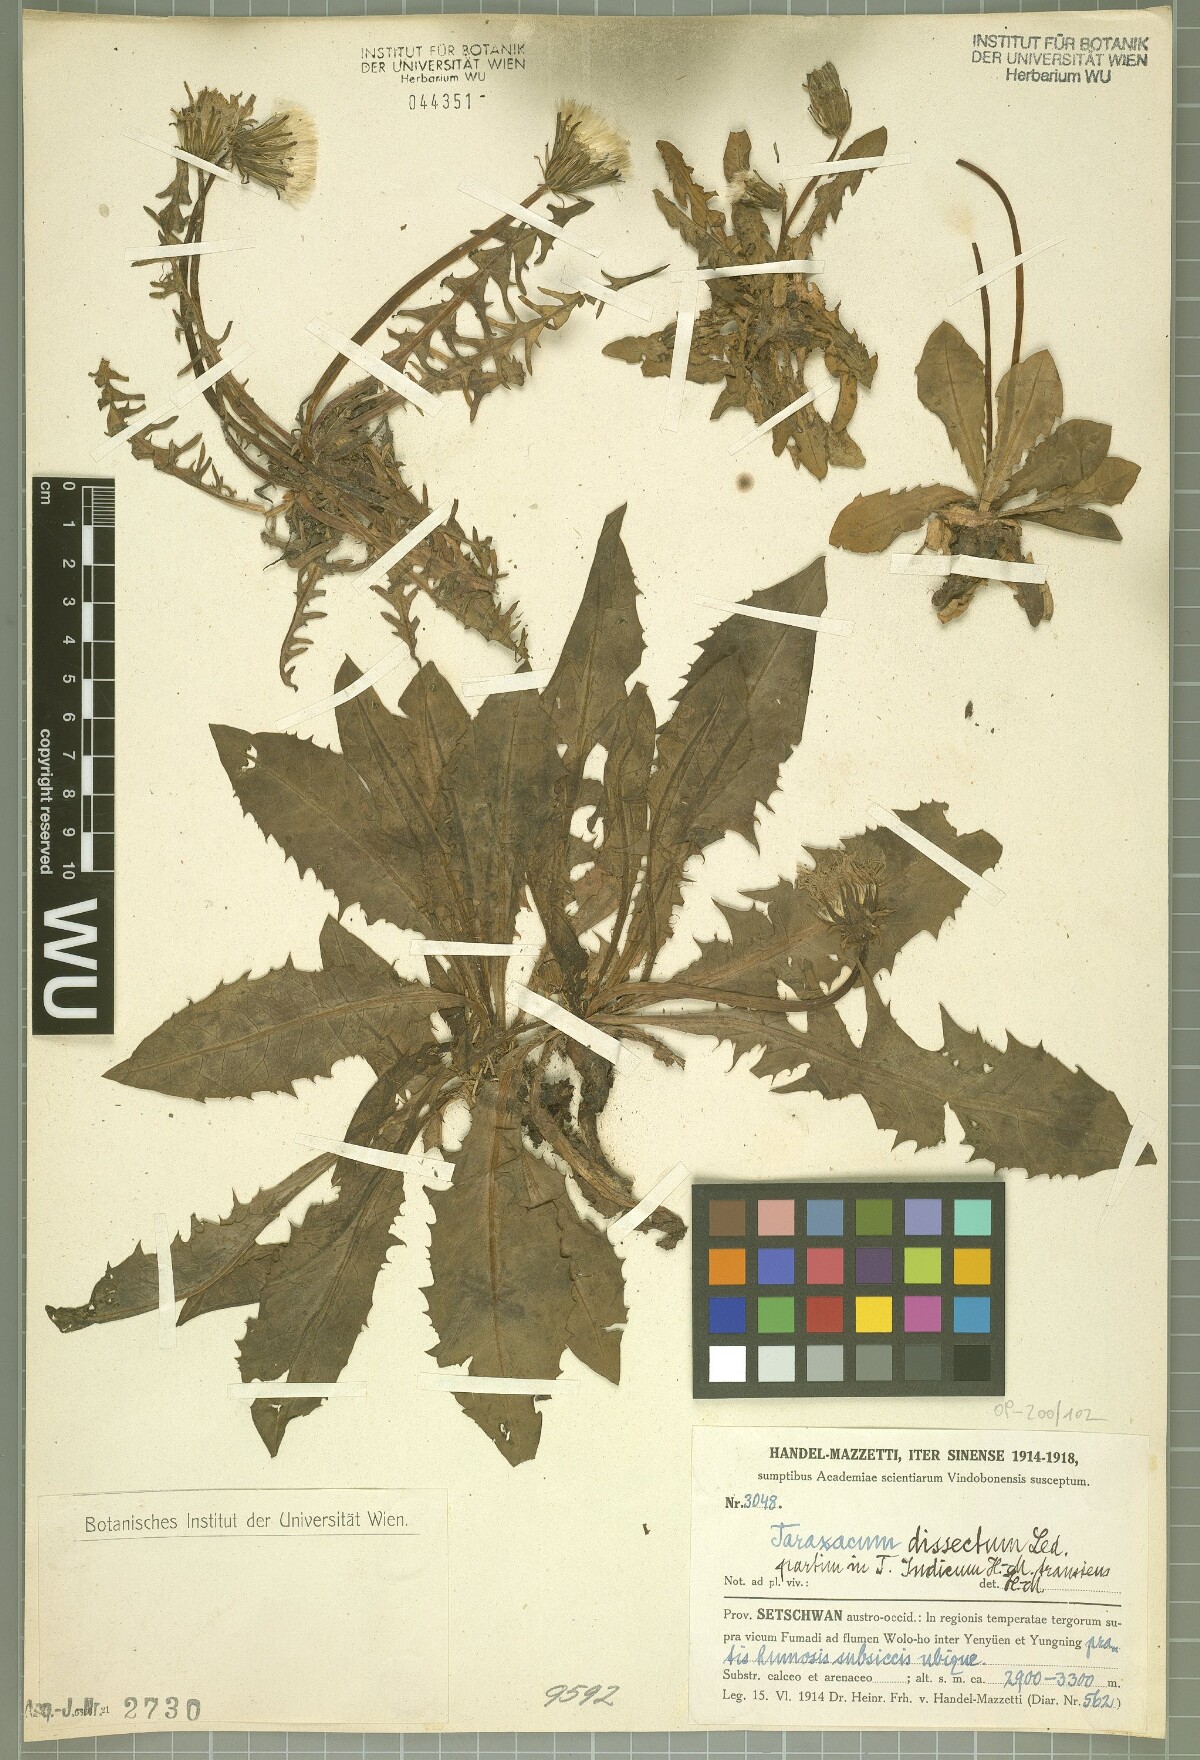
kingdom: Plantae
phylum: Tracheophyta
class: Magnoliopsida
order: Asterales
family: Asteraceae
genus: Taraxacum
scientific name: Taraxacum dissectum
